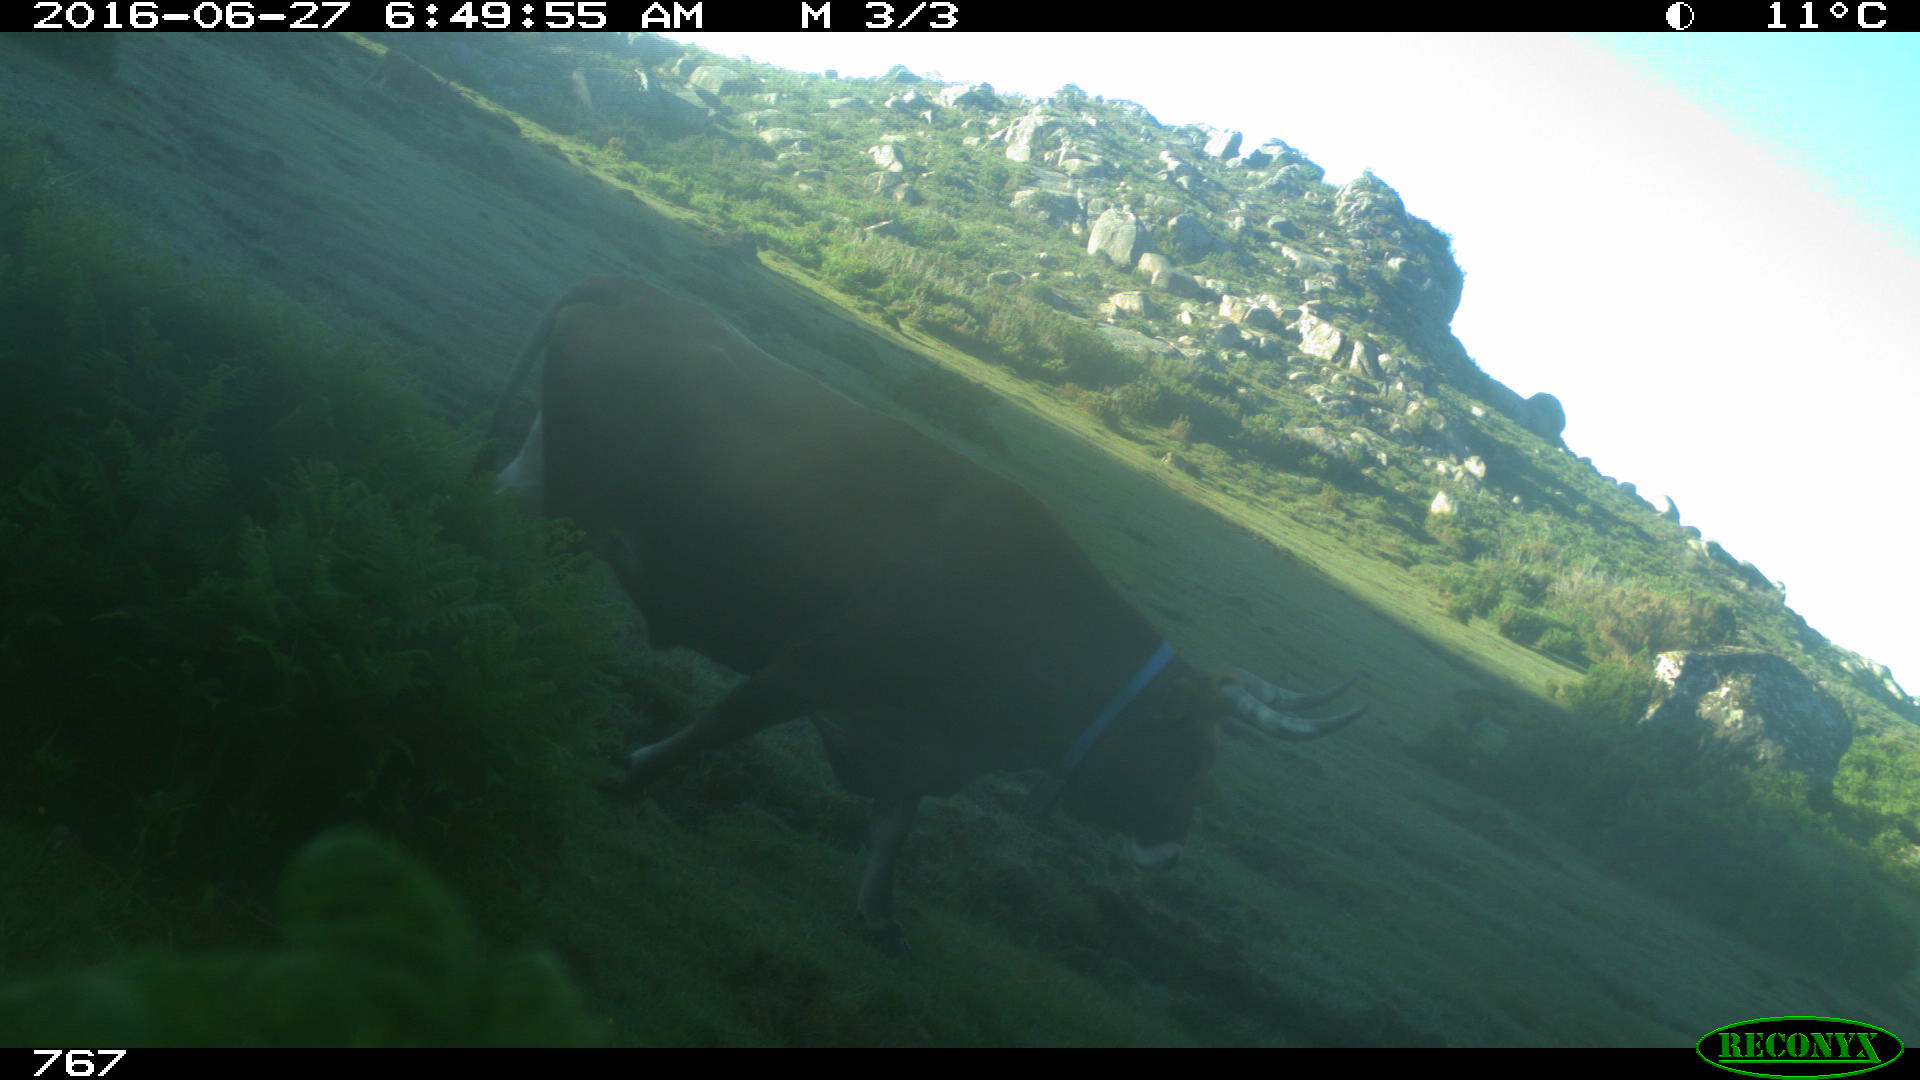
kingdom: Animalia
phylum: Chordata
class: Mammalia
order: Artiodactyla
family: Bovidae
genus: Bos
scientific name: Bos taurus
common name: Domesticated cattle
